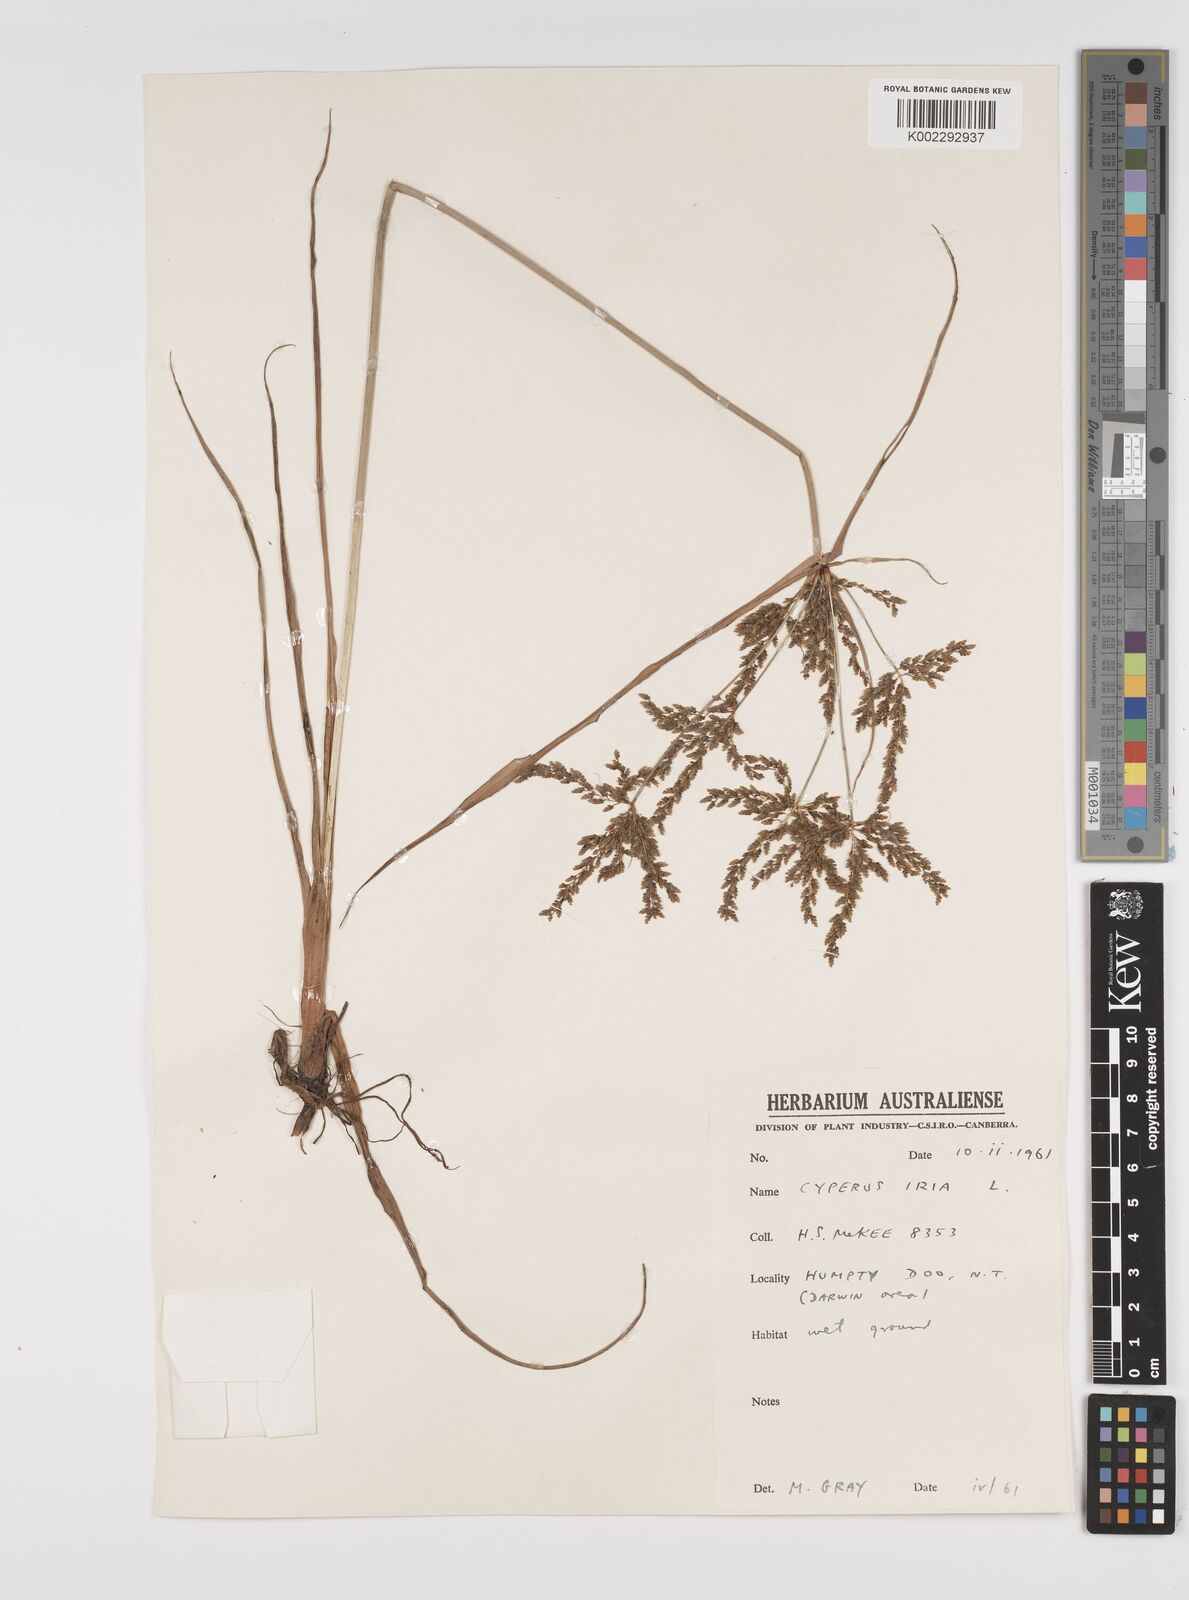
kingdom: Plantae
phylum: Tracheophyta
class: Liliopsida
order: Poales
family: Cyperaceae
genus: Cyperus
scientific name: Cyperus iria
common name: Ricefield flatsedge
